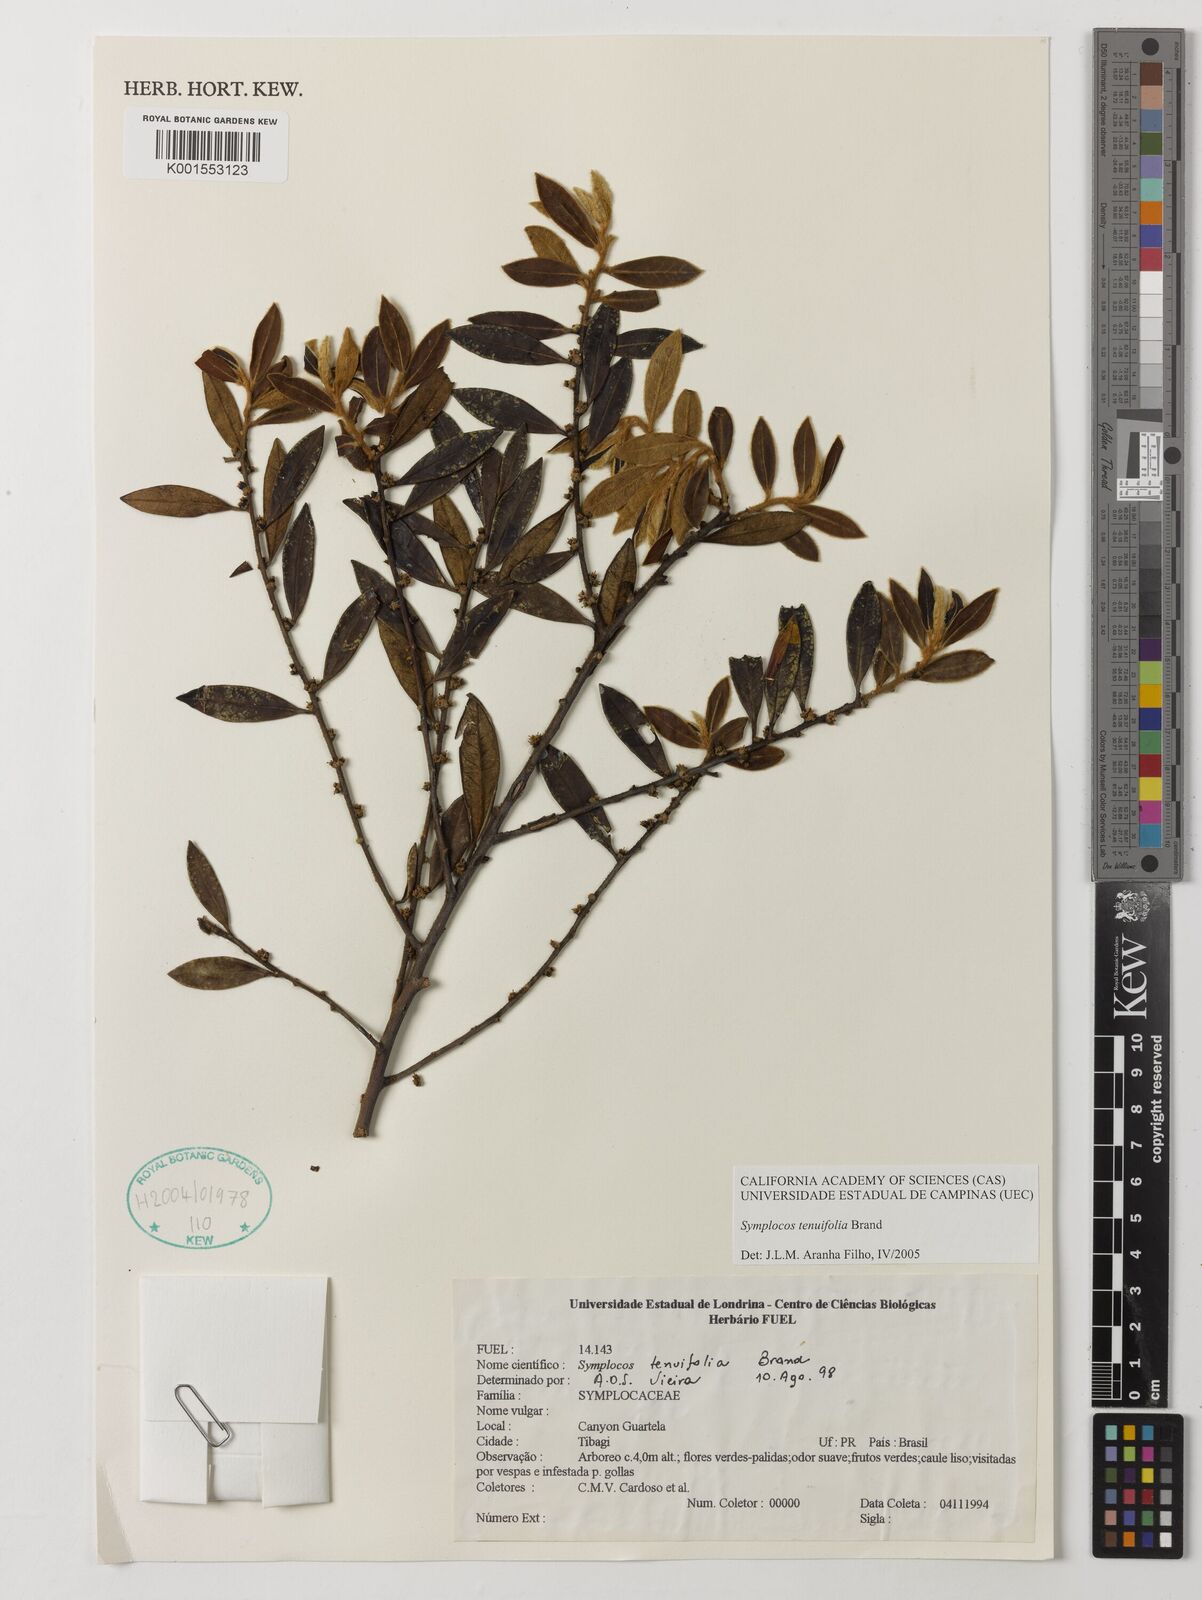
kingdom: Plantae
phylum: Tracheophyta
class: Magnoliopsida
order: Ericales
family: Symplocaceae
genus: Symplocos
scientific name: Symplocos tenuifolia
